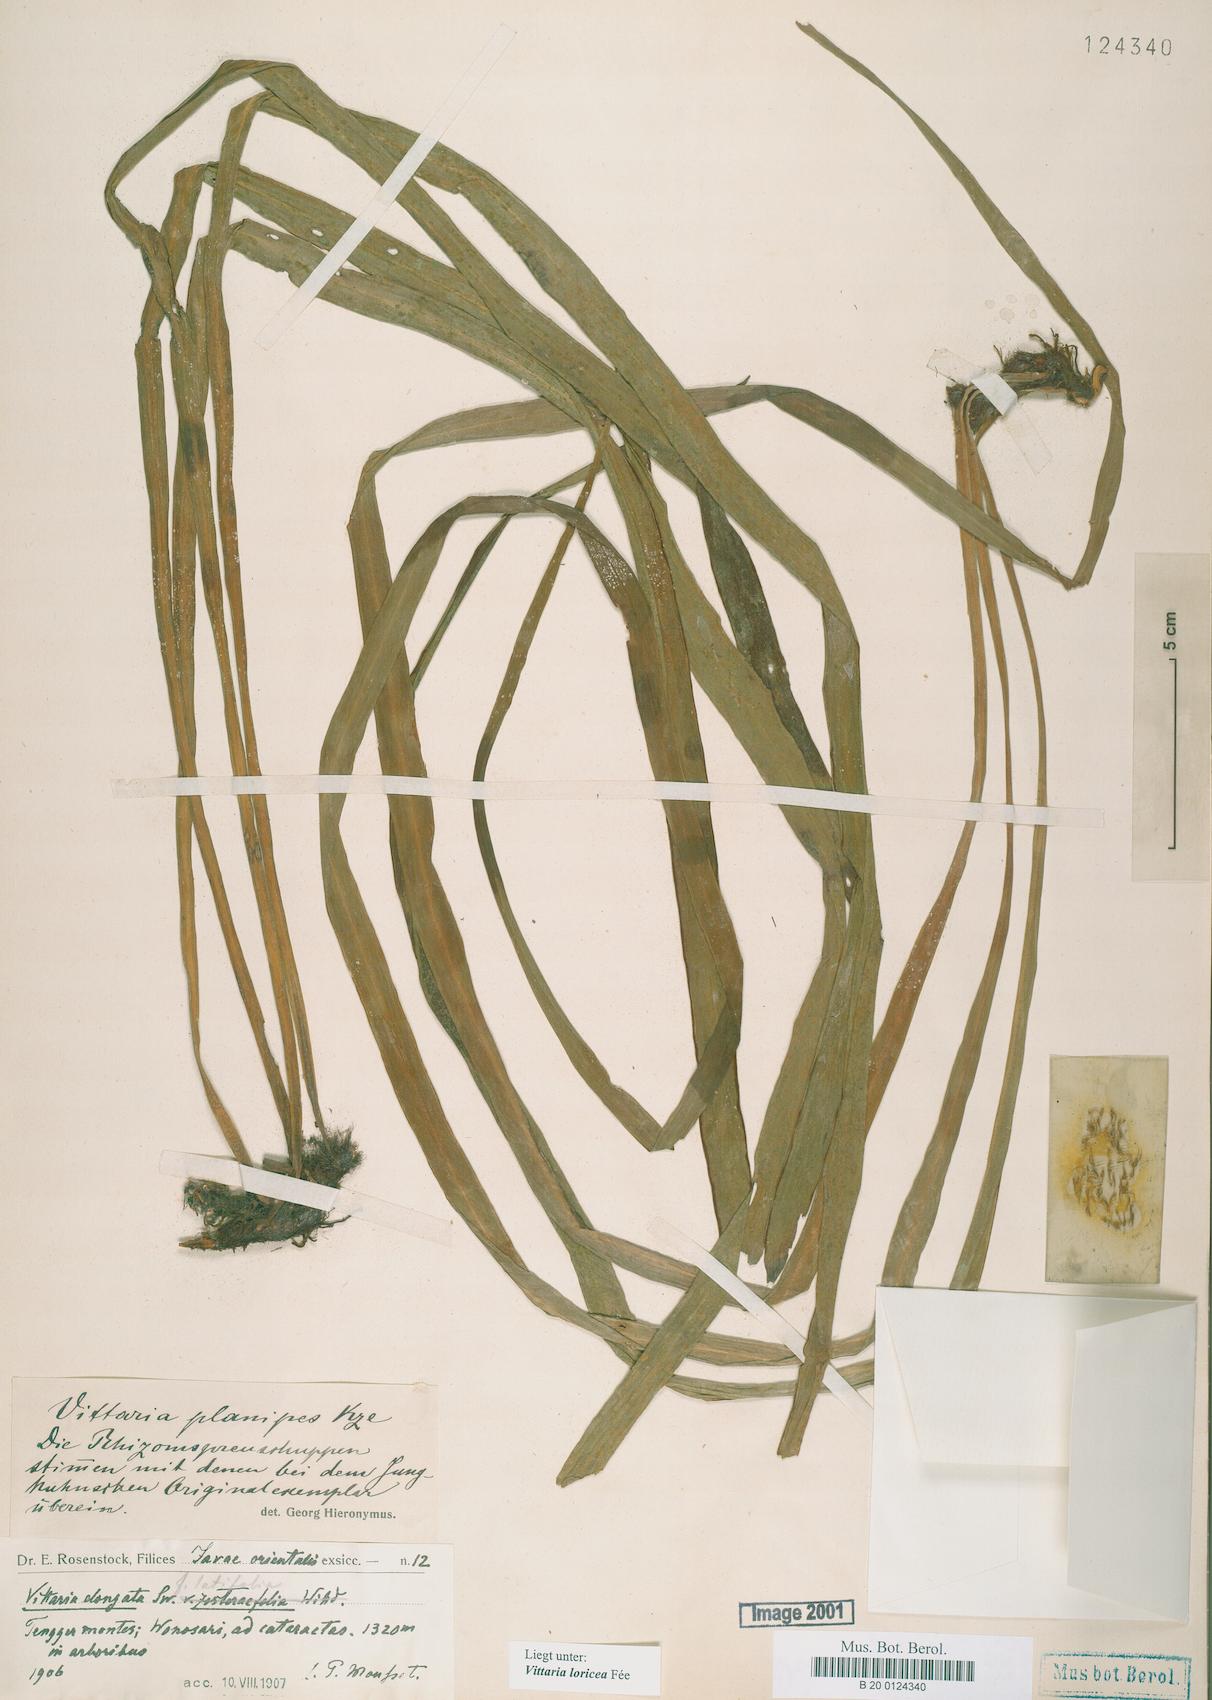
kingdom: Plantae
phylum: Tracheophyta
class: Polypodiopsida
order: Polypodiales
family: Pteridaceae
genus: Haplopteris
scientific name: Haplopteris zosterifolia
